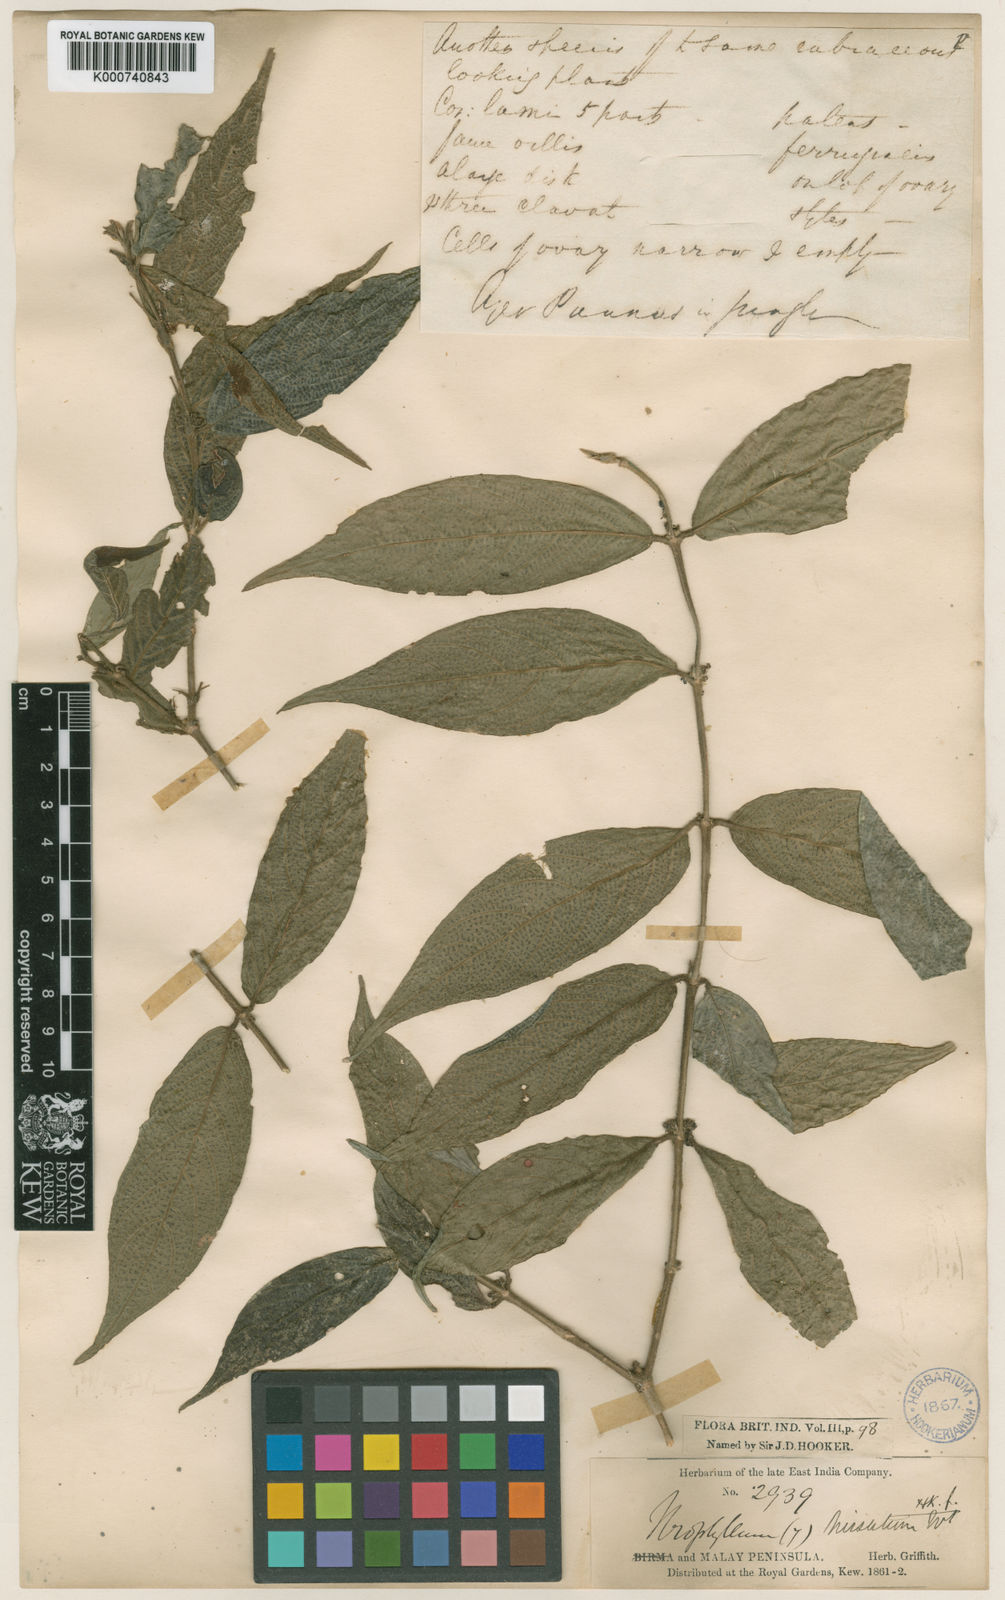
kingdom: Plantae
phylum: Tracheophyta
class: Magnoliopsida
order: Gentianales
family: Rubiaceae
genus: Urophyllum
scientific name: Urophyllum hirsutum
